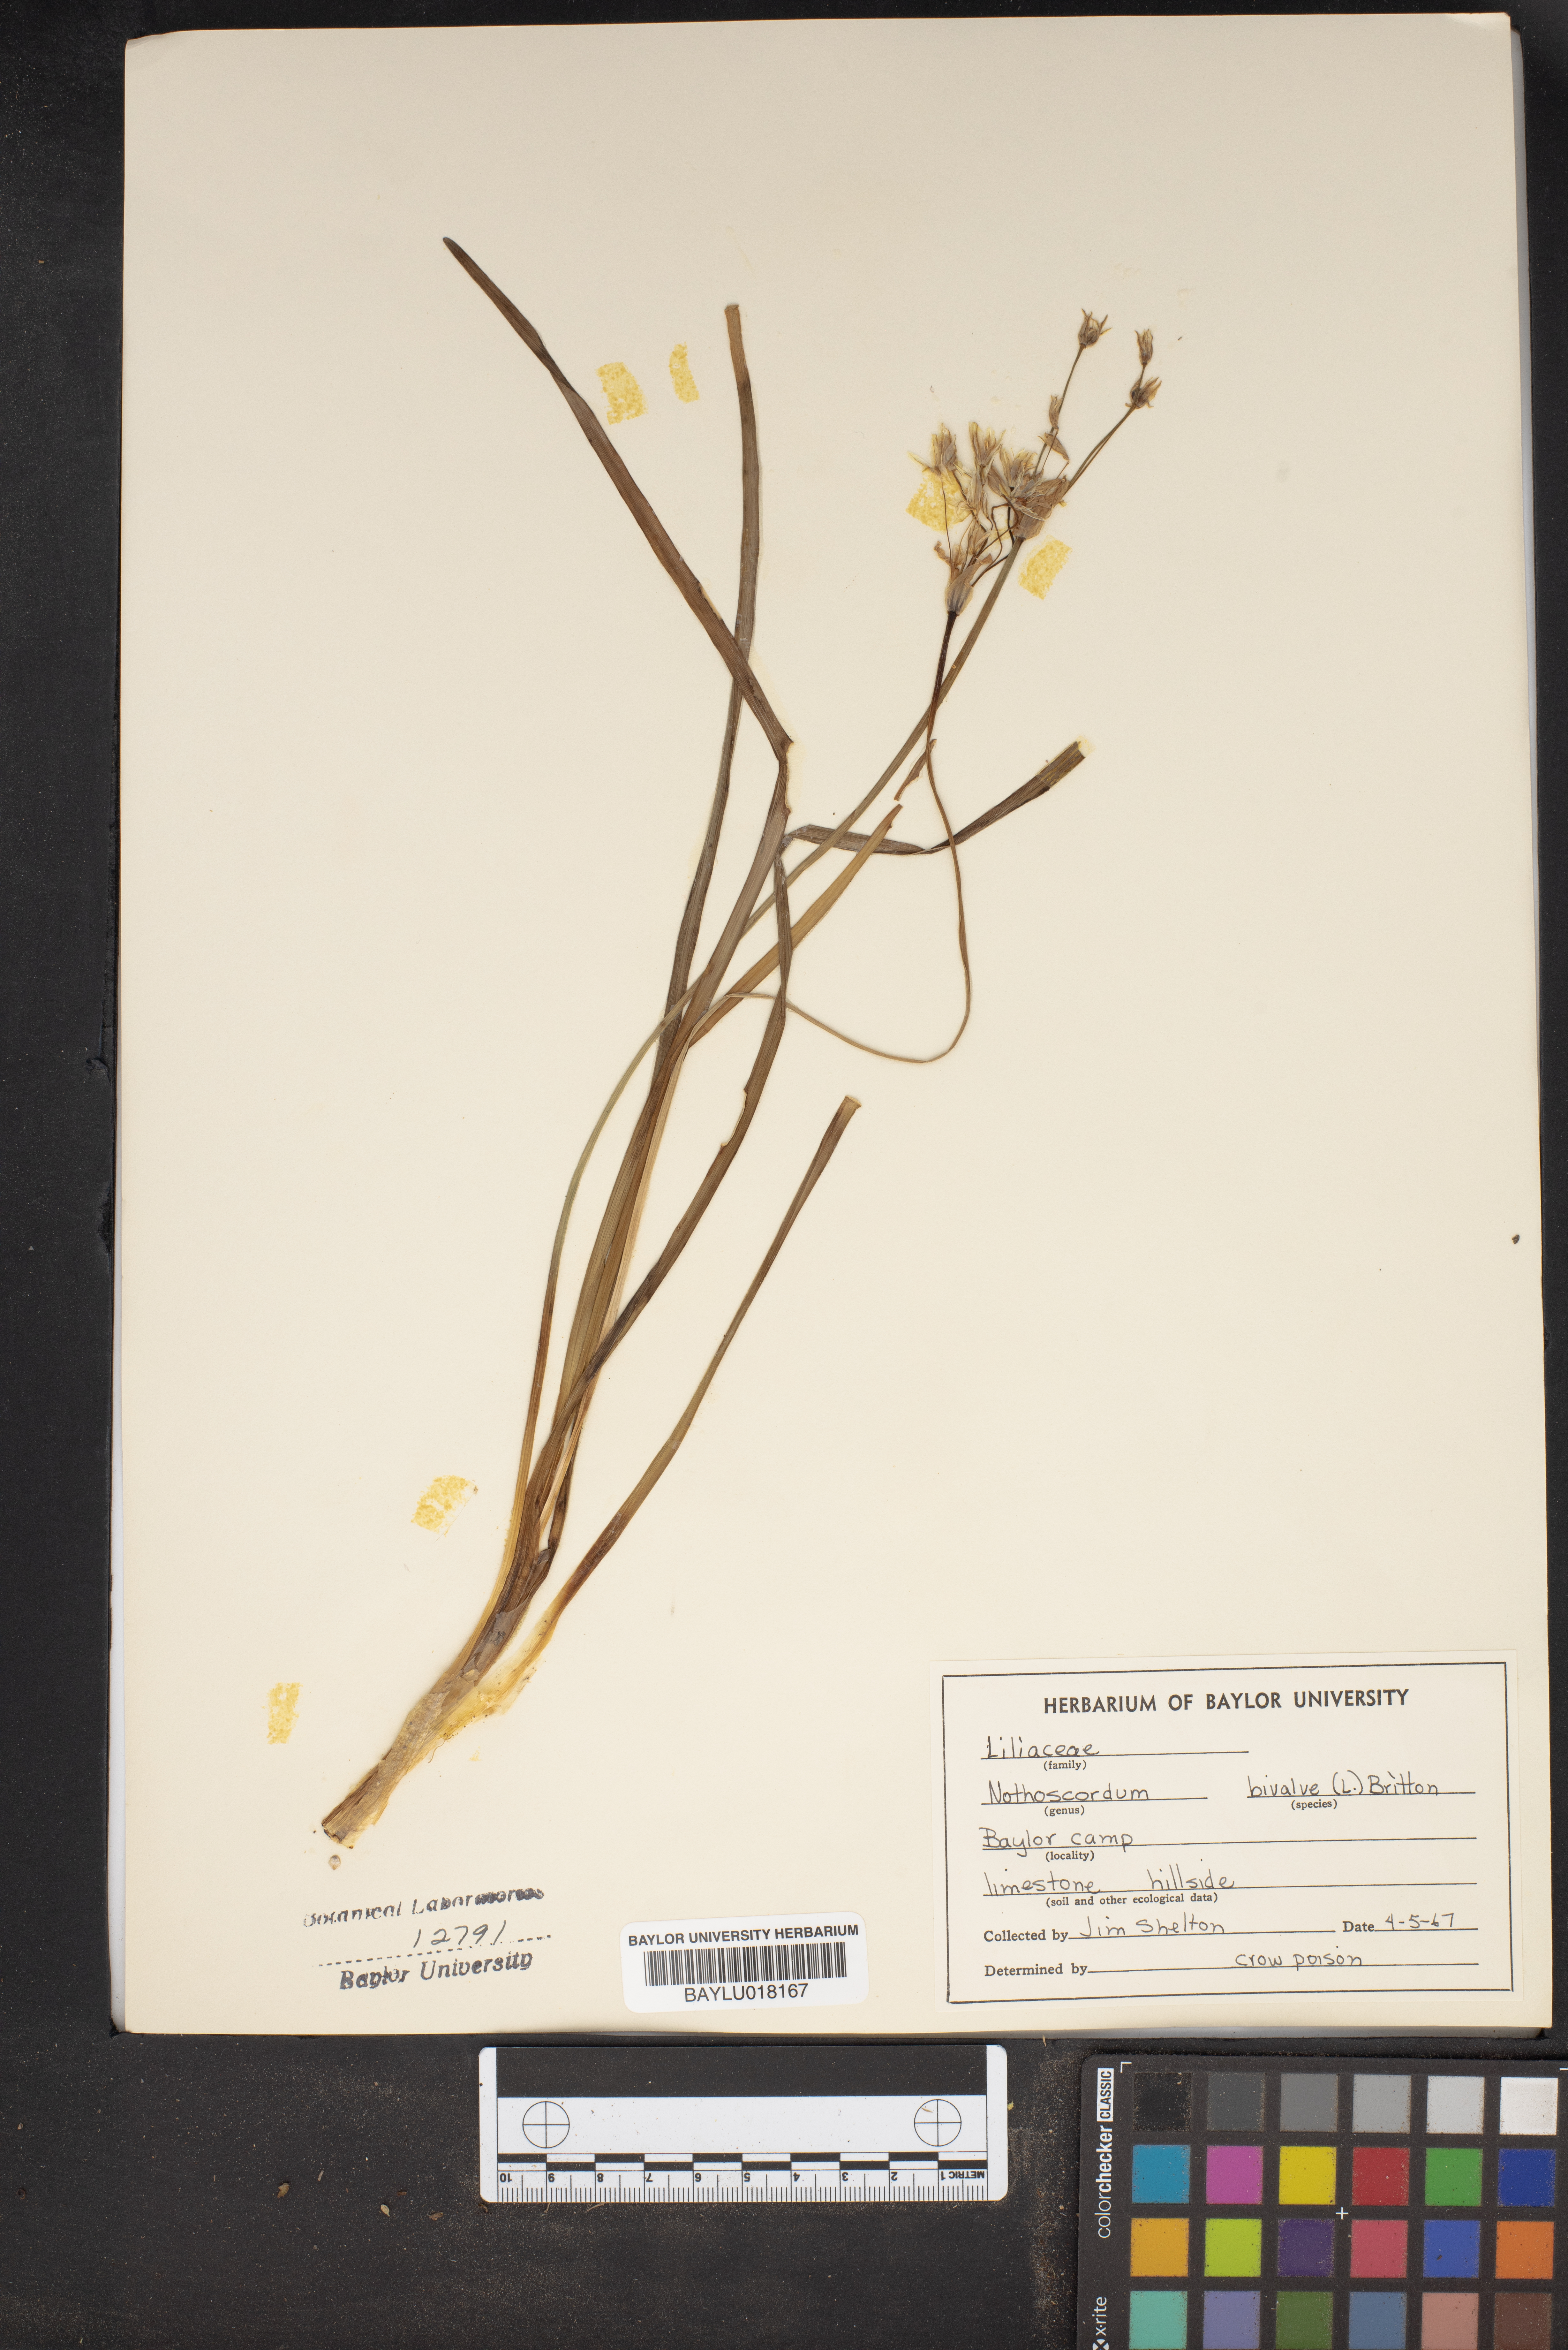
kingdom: Plantae
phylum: Tracheophyta
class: Liliopsida
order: Asparagales
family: Amaryllidaceae
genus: Nothoscordum
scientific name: Nothoscordum bivalve
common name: Crow-poison
